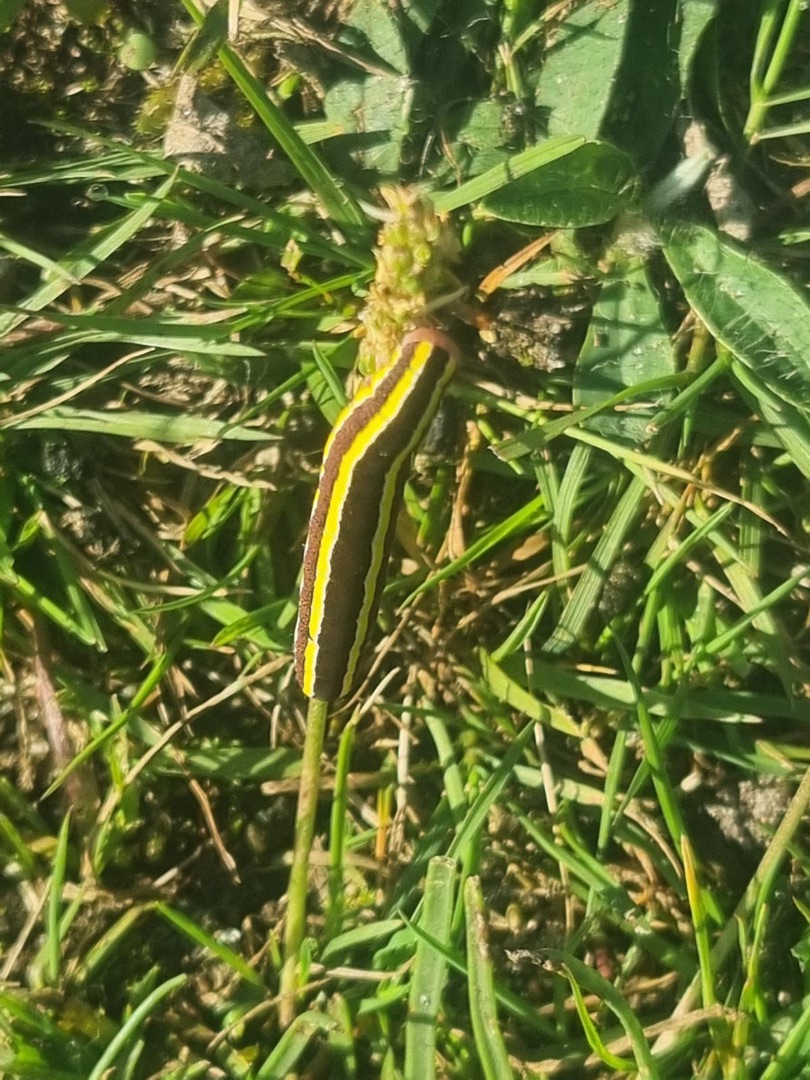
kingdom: Animalia
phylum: Arthropoda
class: Insecta
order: Lepidoptera
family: Noctuidae
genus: Ceramica
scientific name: Ceramica pisi
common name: Ærteugle
